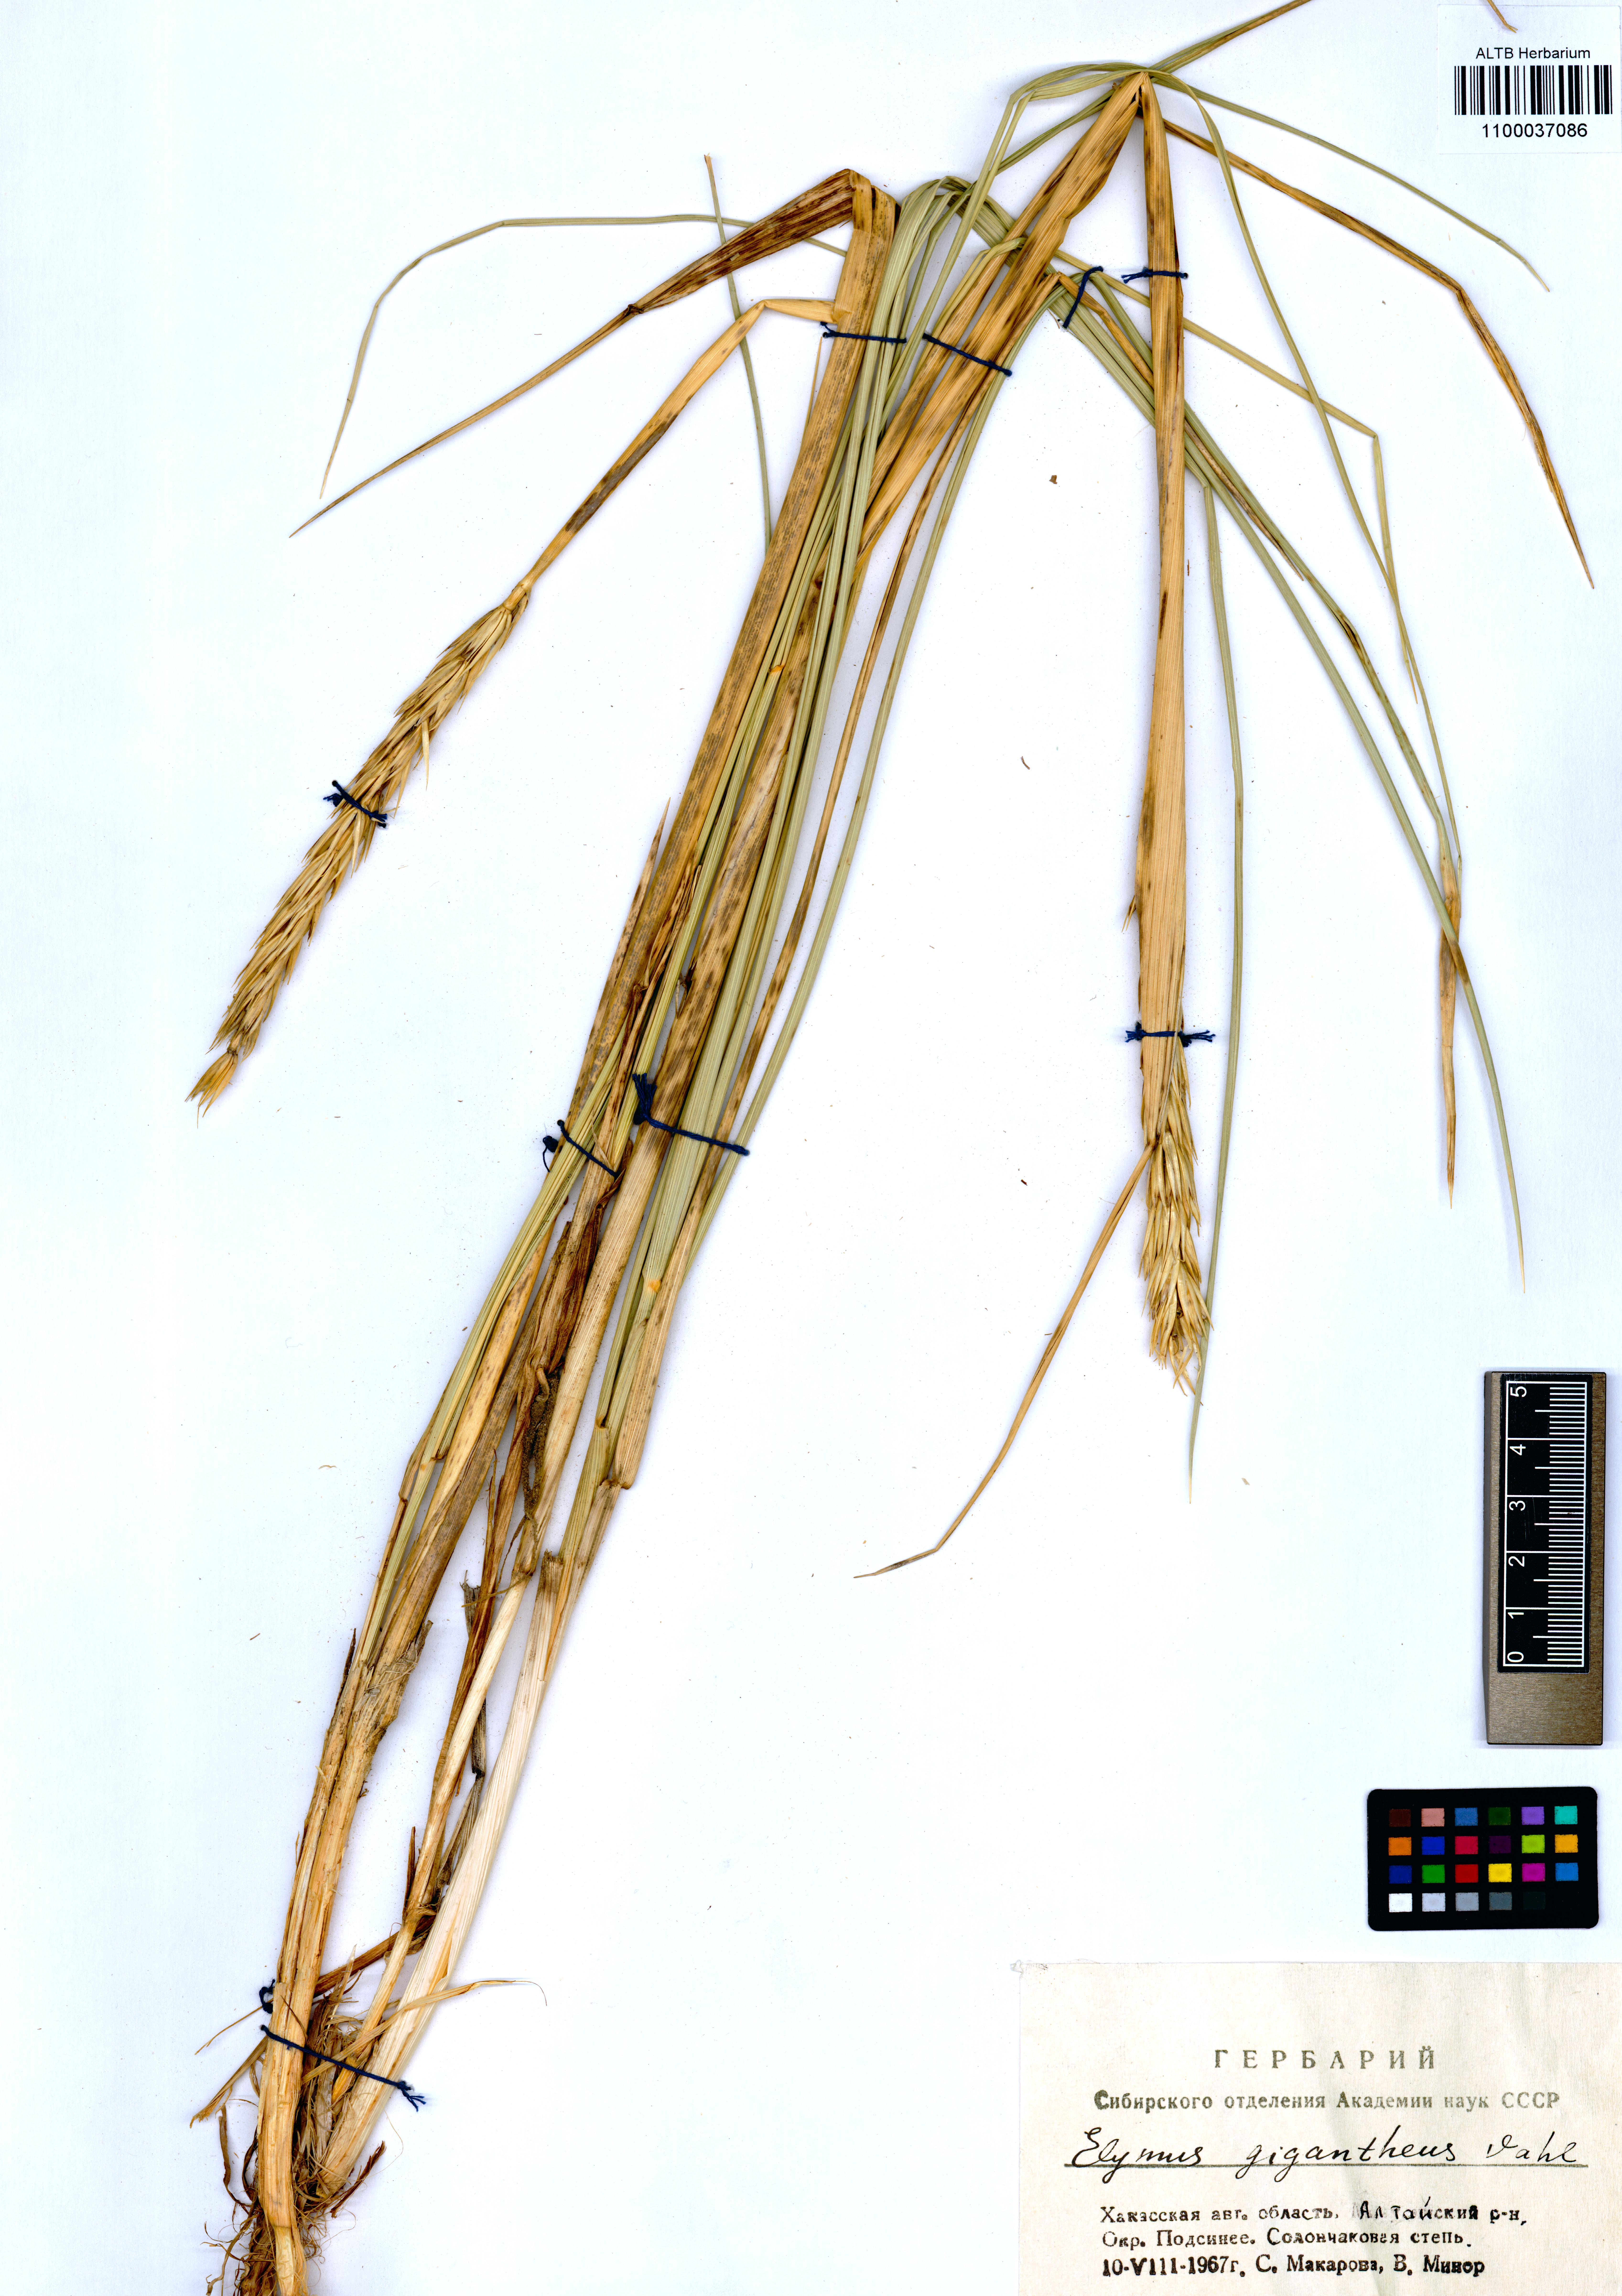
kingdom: Plantae
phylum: Tracheophyta
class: Liliopsida
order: Poales
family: Poaceae
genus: Leymus
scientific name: Leymus racemosus
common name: Mammoth wildrye
